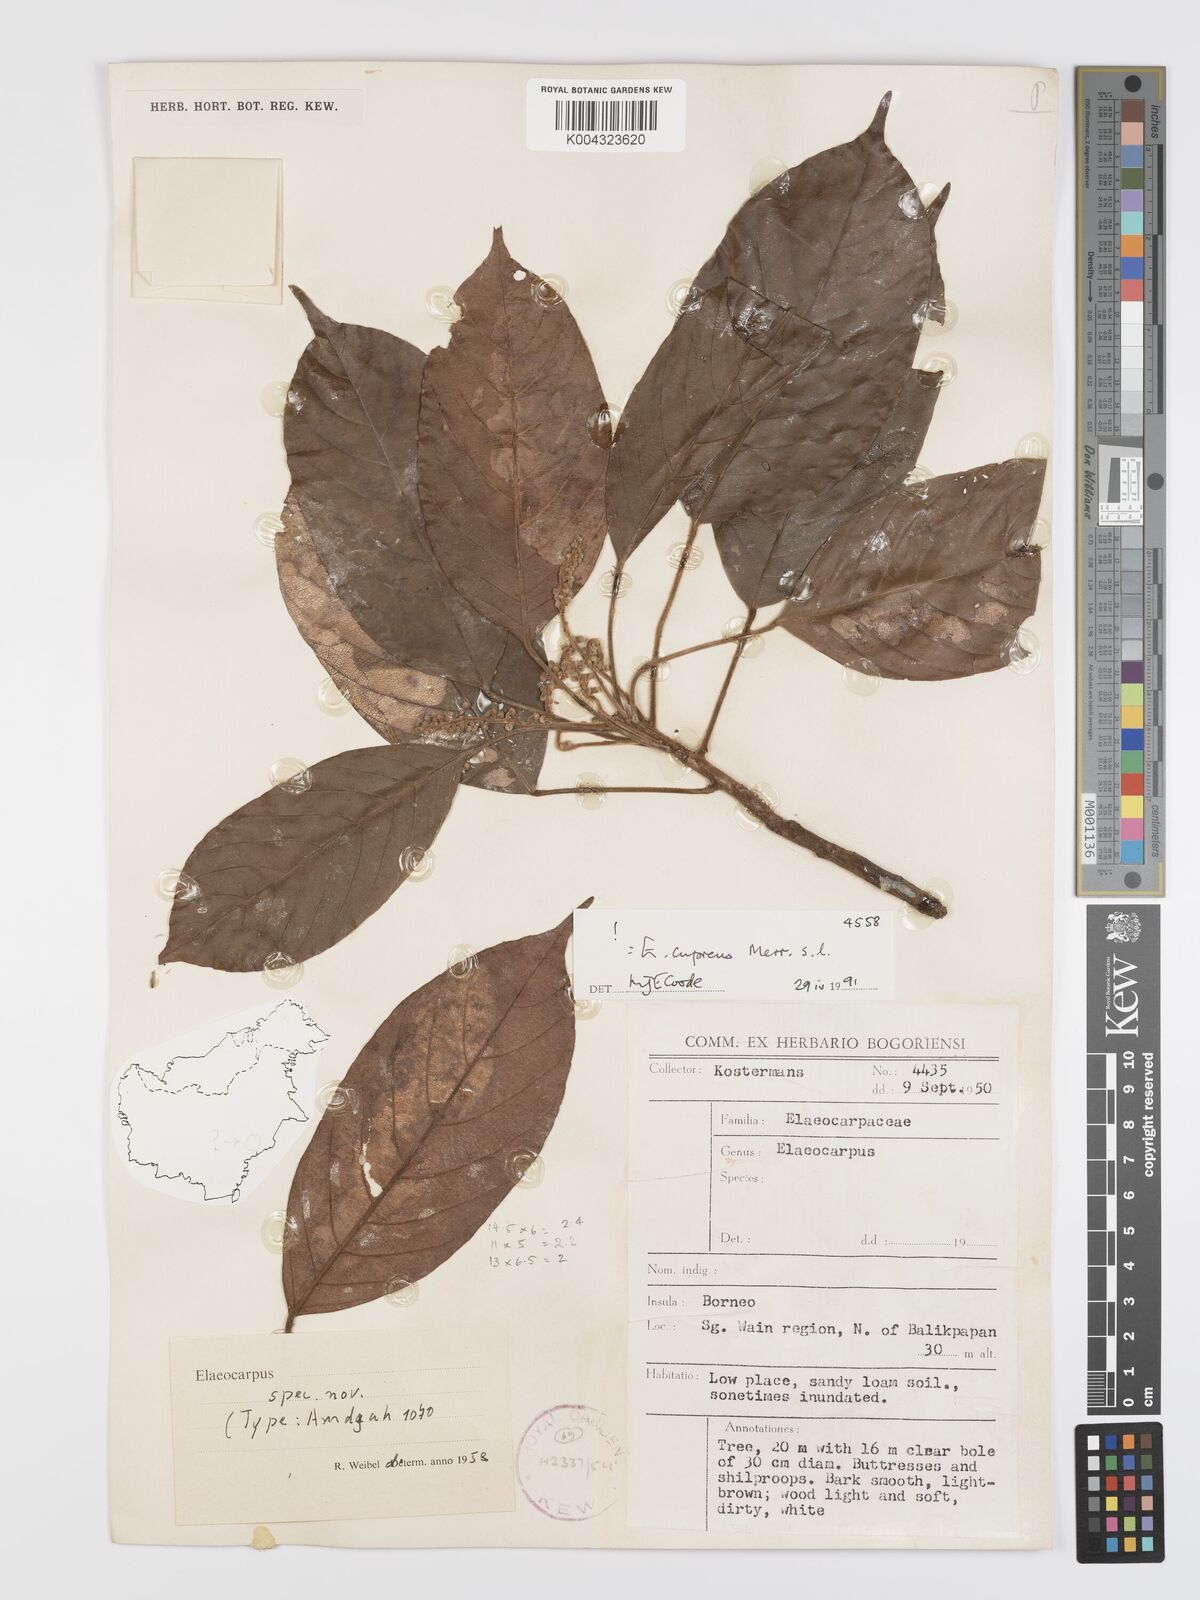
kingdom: Plantae
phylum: Tracheophyta
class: Magnoliopsida
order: Oxalidales
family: Elaeocarpaceae
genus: Elaeocarpus
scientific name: Elaeocarpus cupreus
